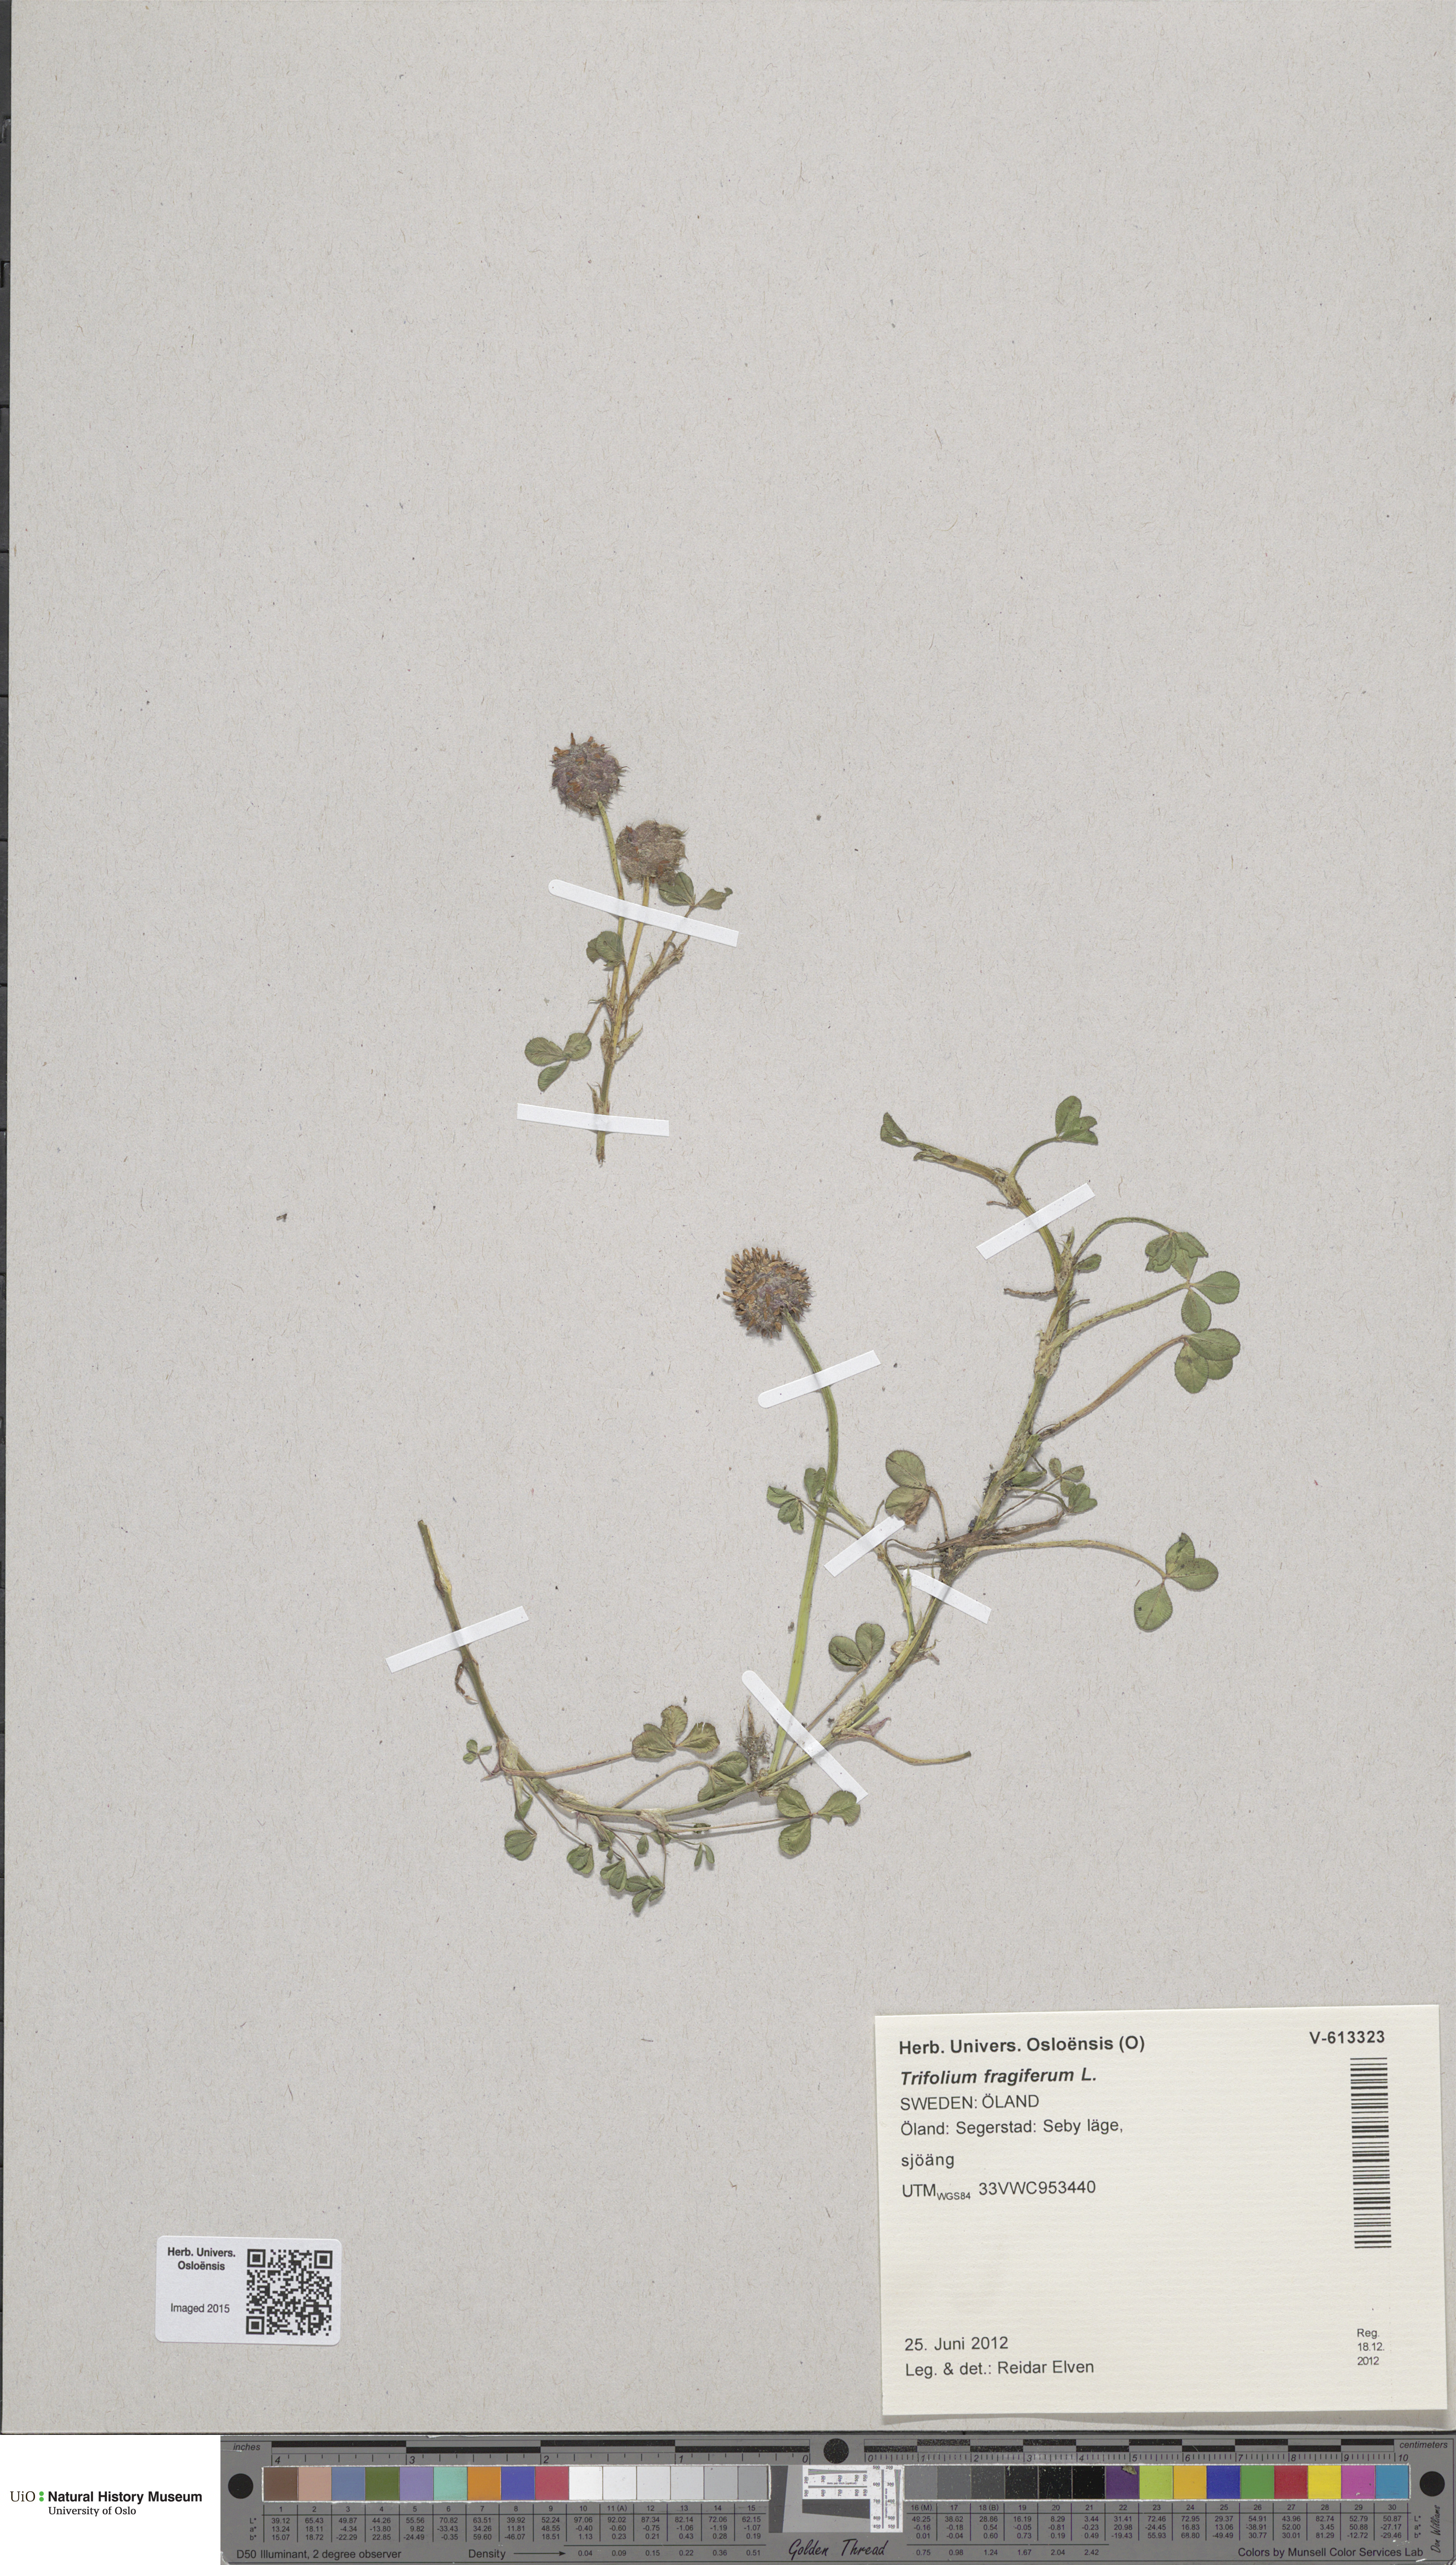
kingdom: Plantae
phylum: Tracheophyta
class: Magnoliopsida
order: Fabales
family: Fabaceae
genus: Trifolium
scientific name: Trifolium fragiferum
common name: Strawberry clover
